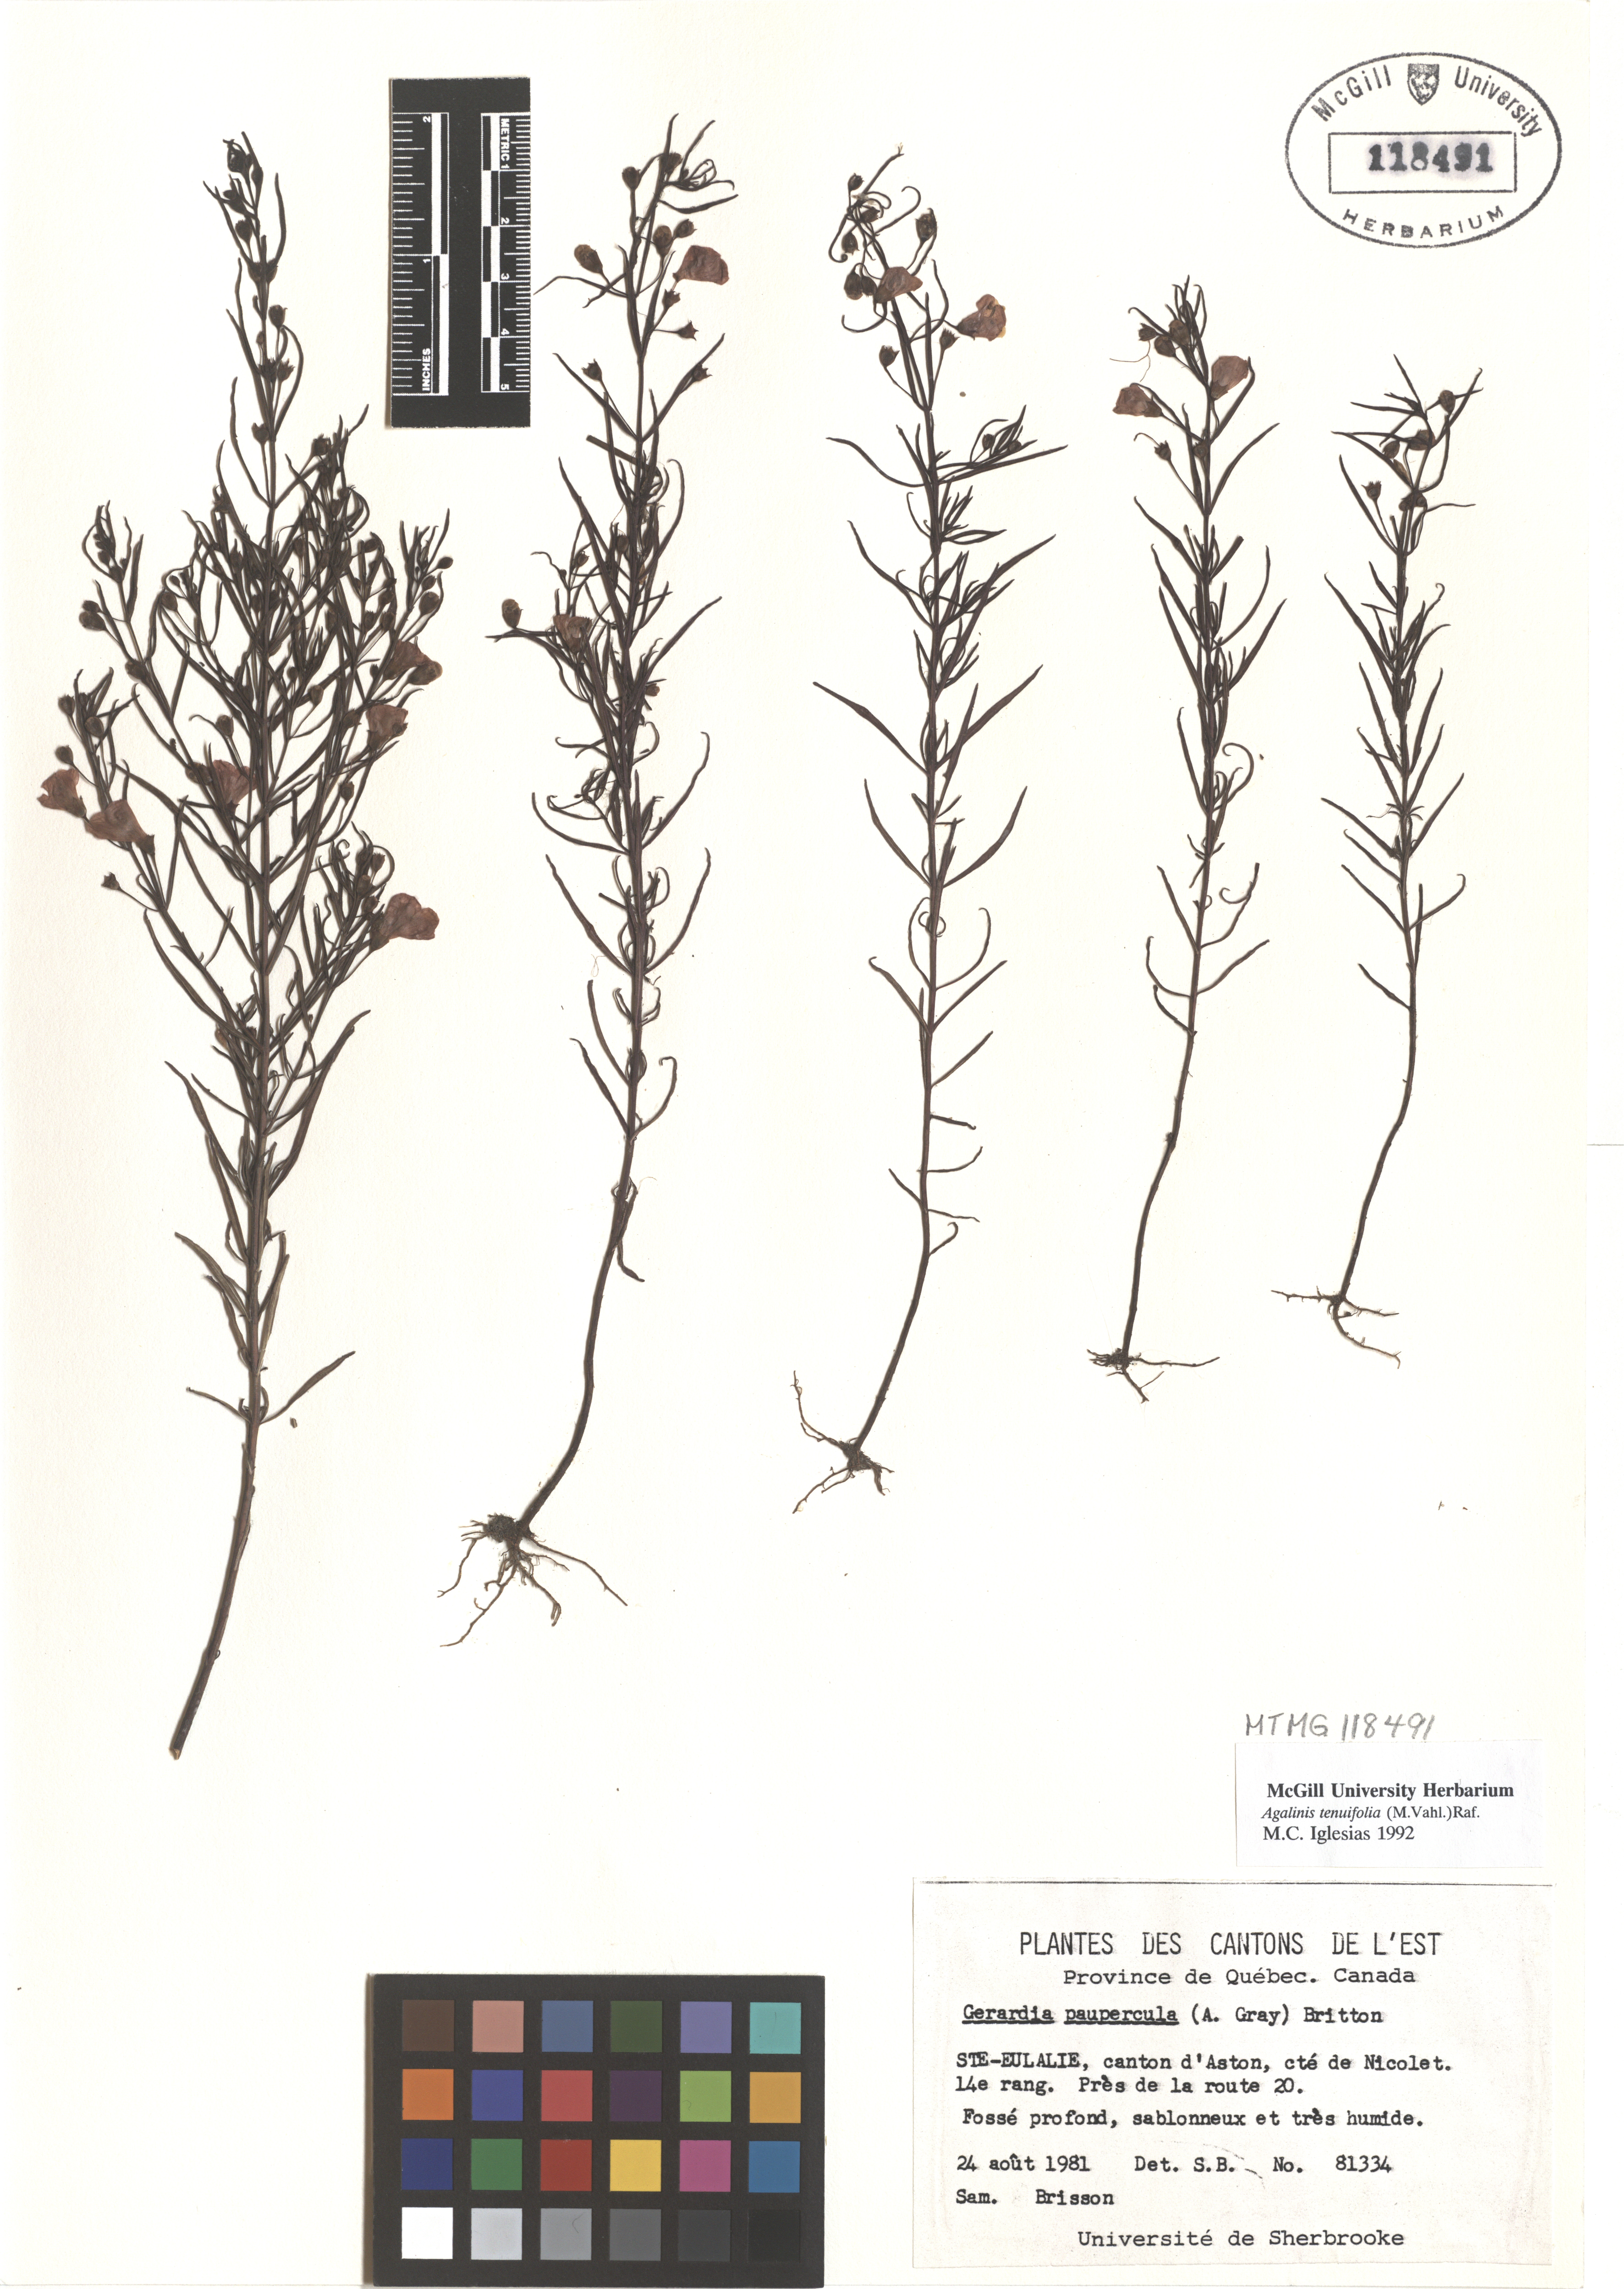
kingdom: Plantae
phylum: Tracheophyta
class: Magnoliopsida
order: Lamiales
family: Orobanchaceae
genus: Agalinis
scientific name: Agalinis tenuifolia
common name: Slender agalinis
